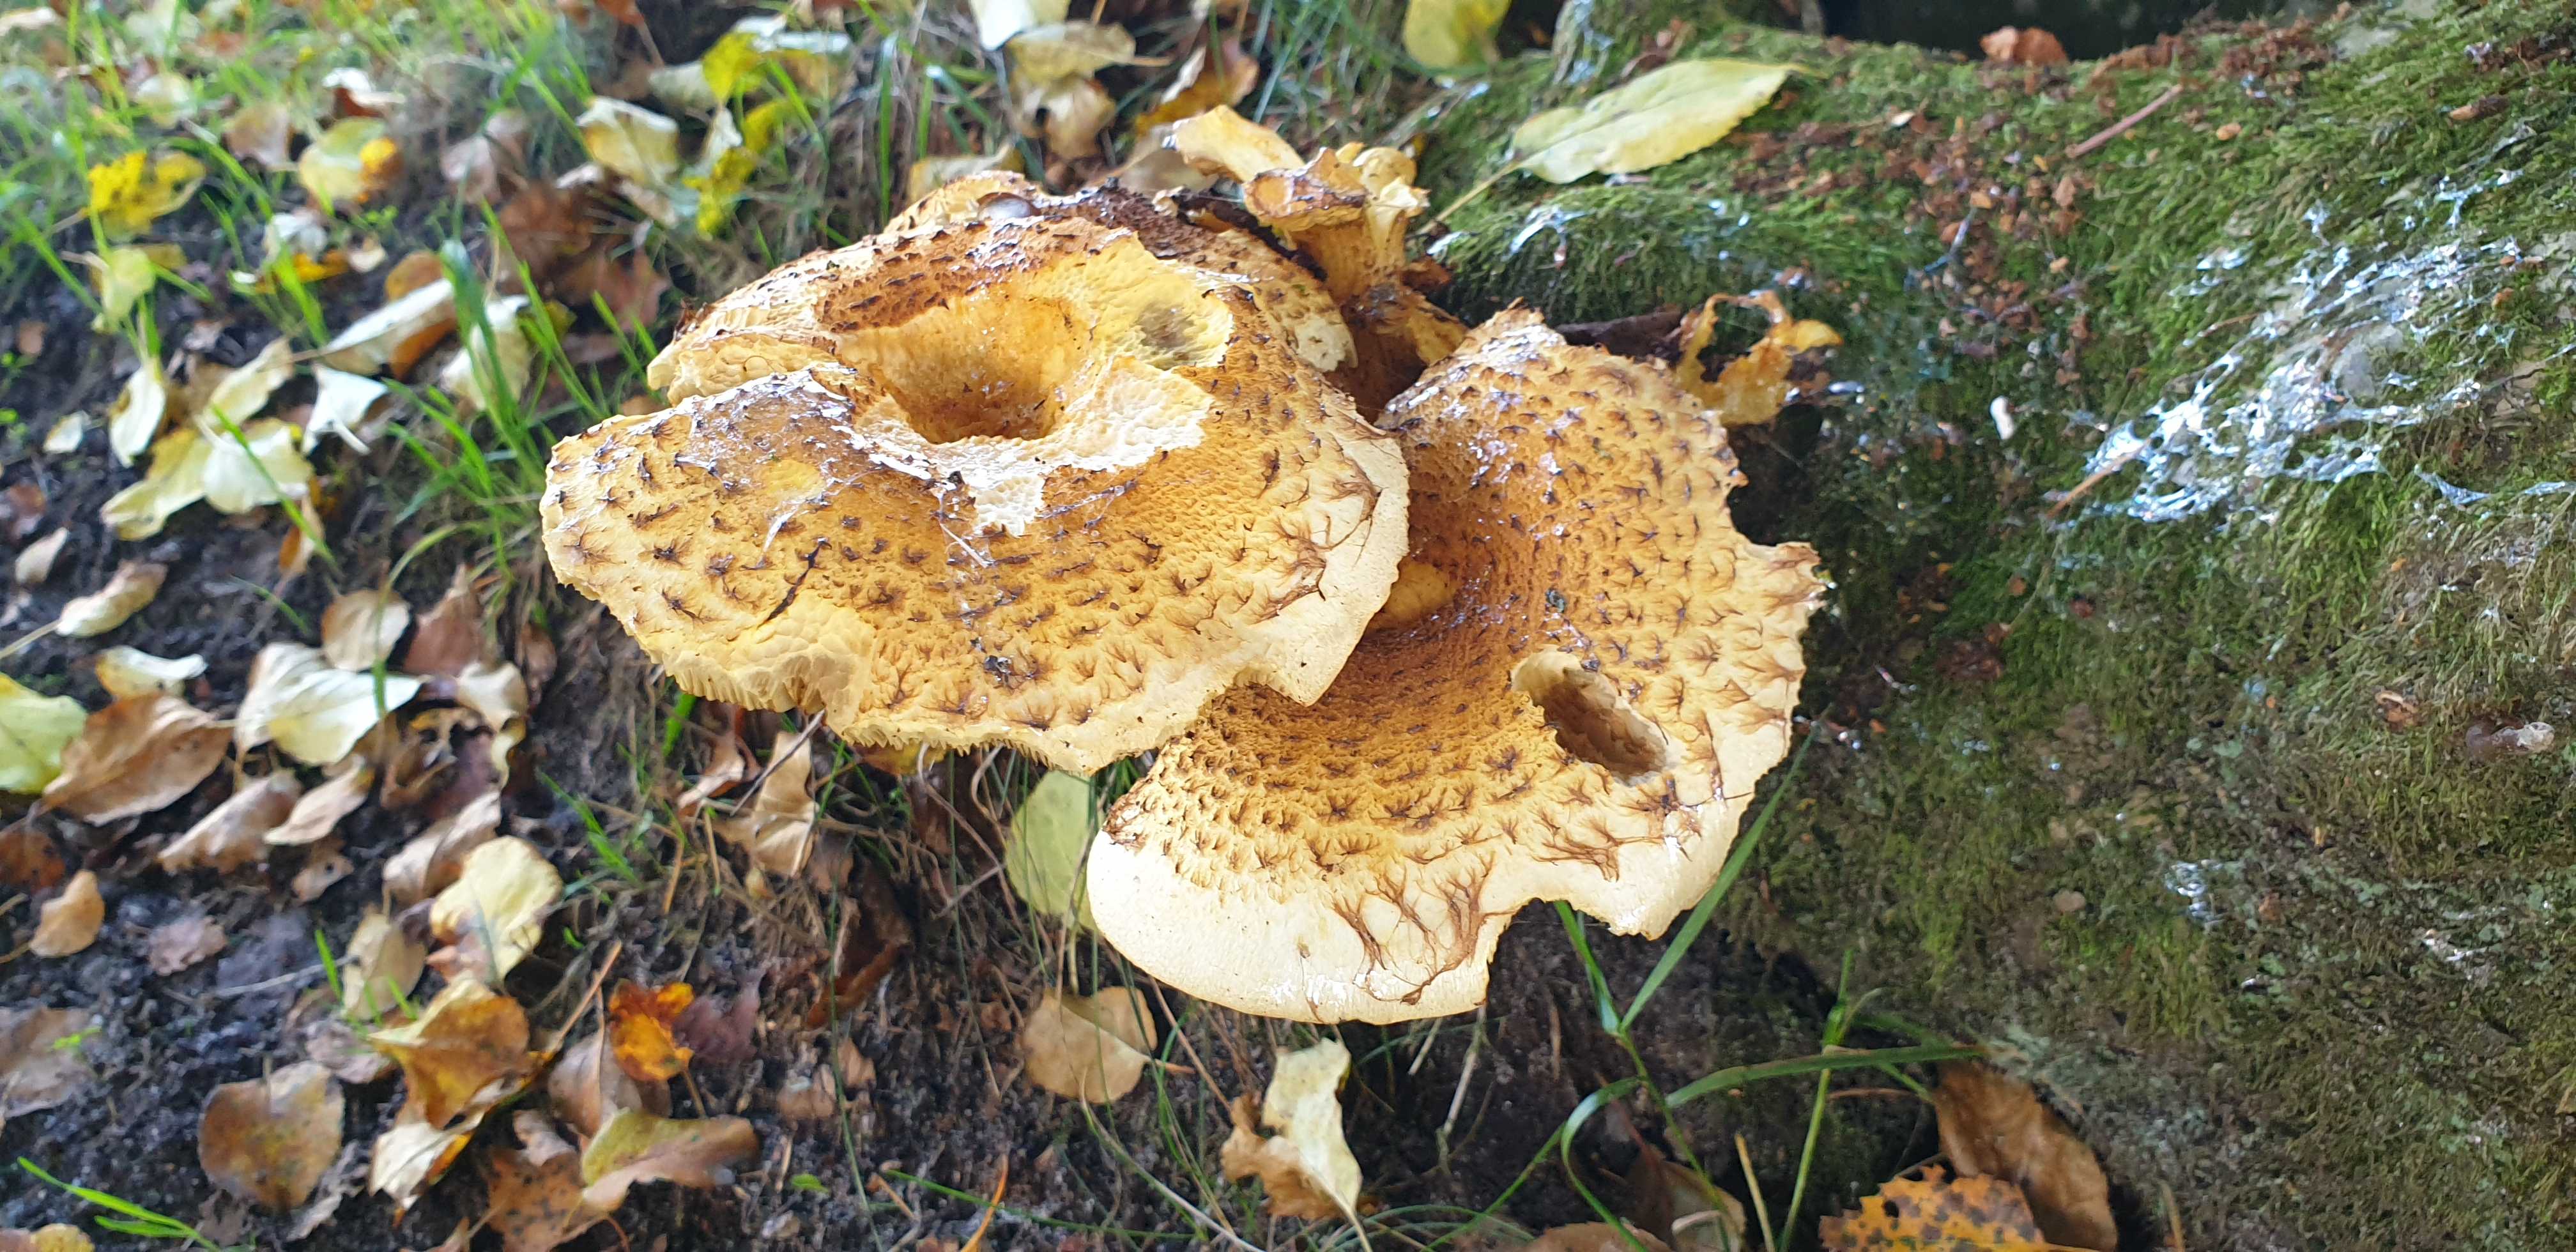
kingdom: Fungi
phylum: Basidiomycota
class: Agaricomycetes
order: Agaricales
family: Strophariaceae
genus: Pholiota
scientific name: Pholiota squarrosa
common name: krumskællet skælhat
